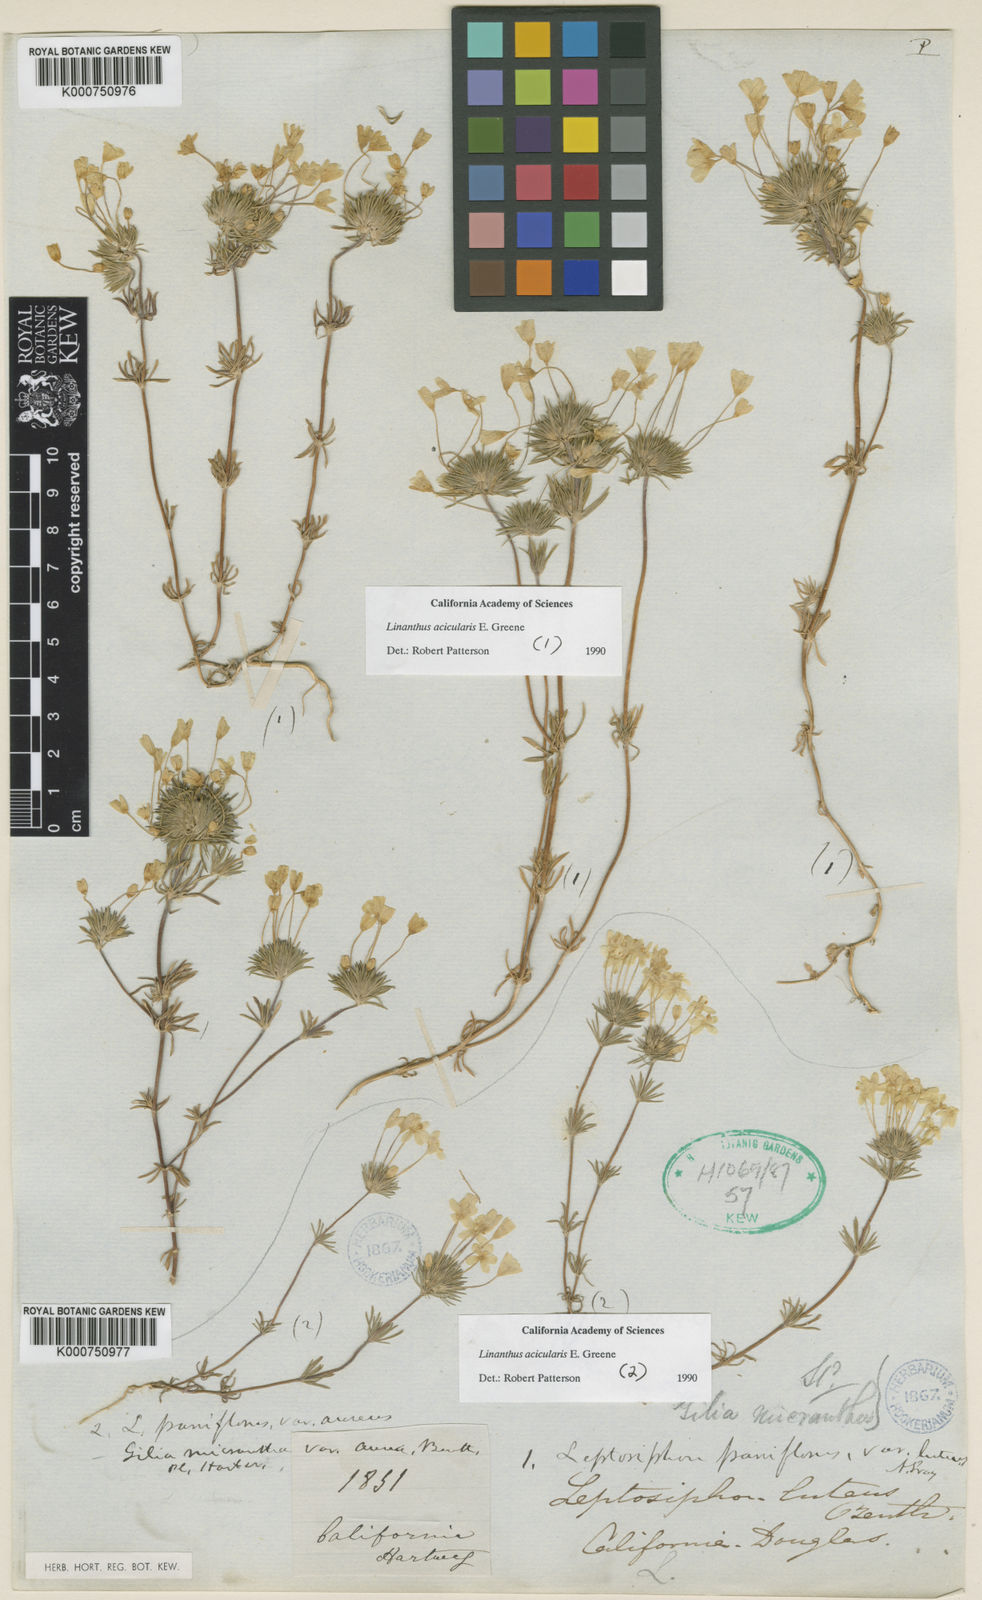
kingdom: Plantae
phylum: Tracheophyta
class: Magnoliopsida
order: Ericales
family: Polemoniaceae
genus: Leptosiphon
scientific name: Leptosiphon parviflorus
